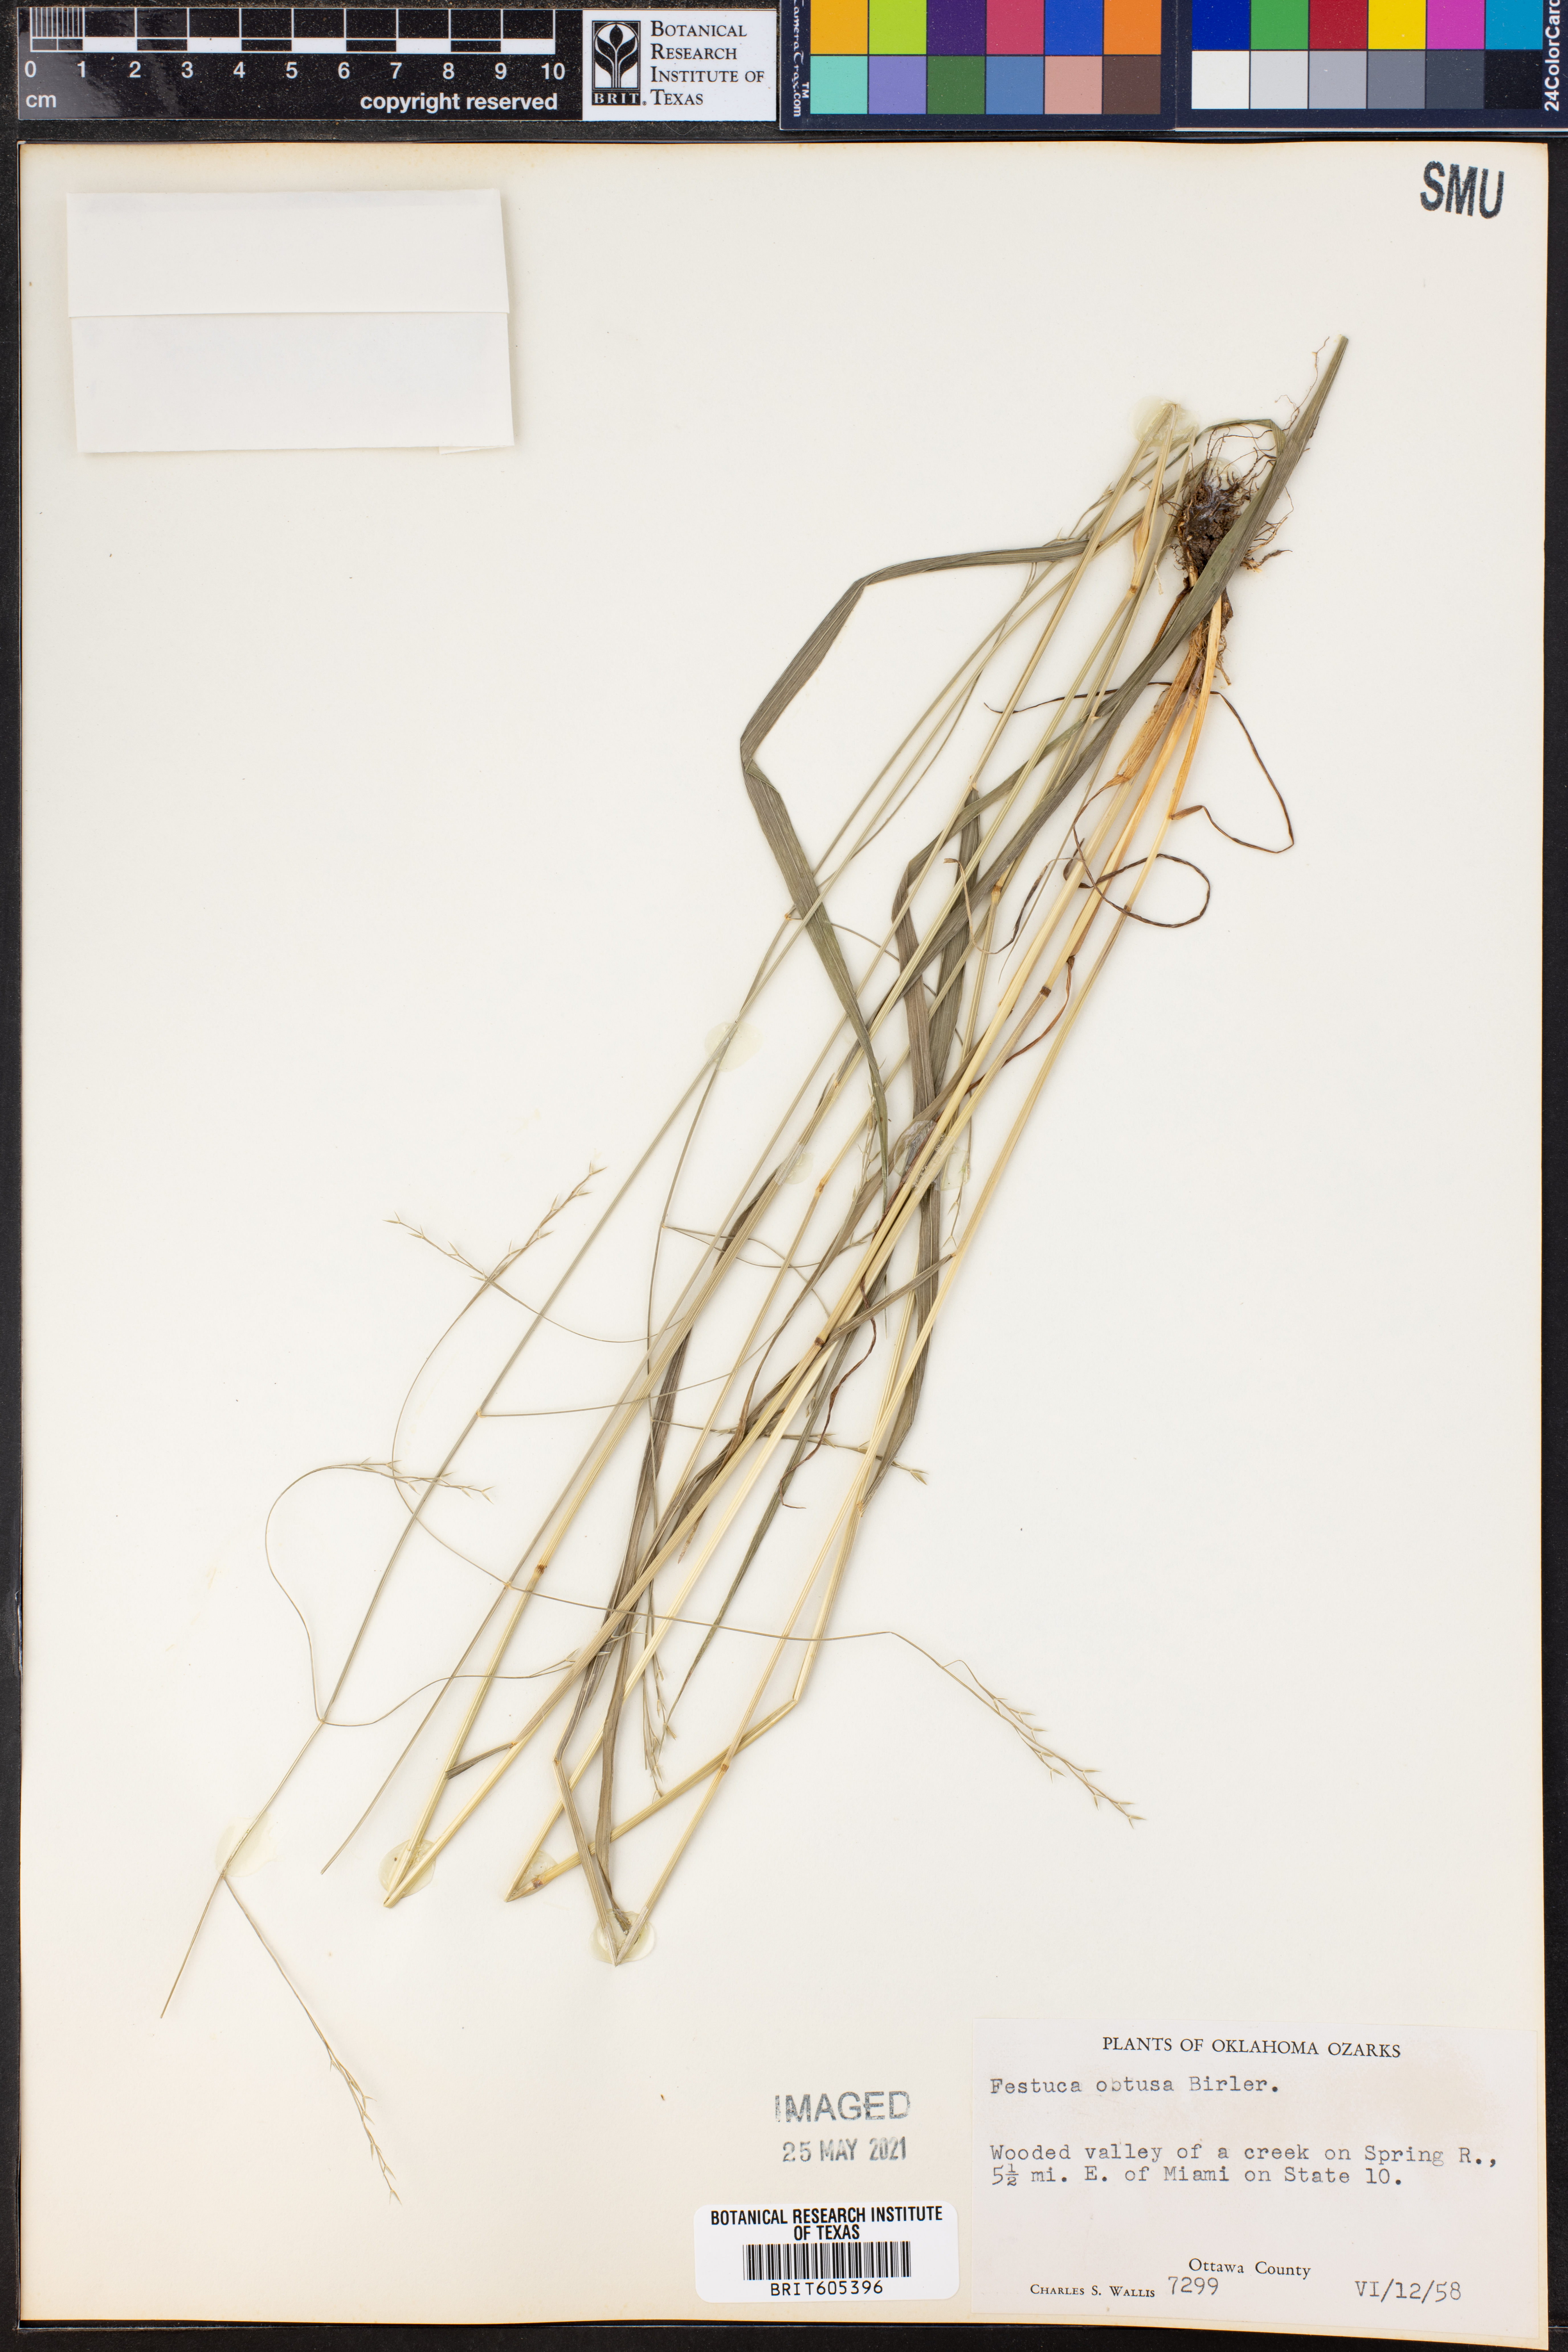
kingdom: Plantae
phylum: Tracheophyta
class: Liliopsida
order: Poales
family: Poaceae
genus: Festuca
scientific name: Festuca subverticillata
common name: Nodding fescue
